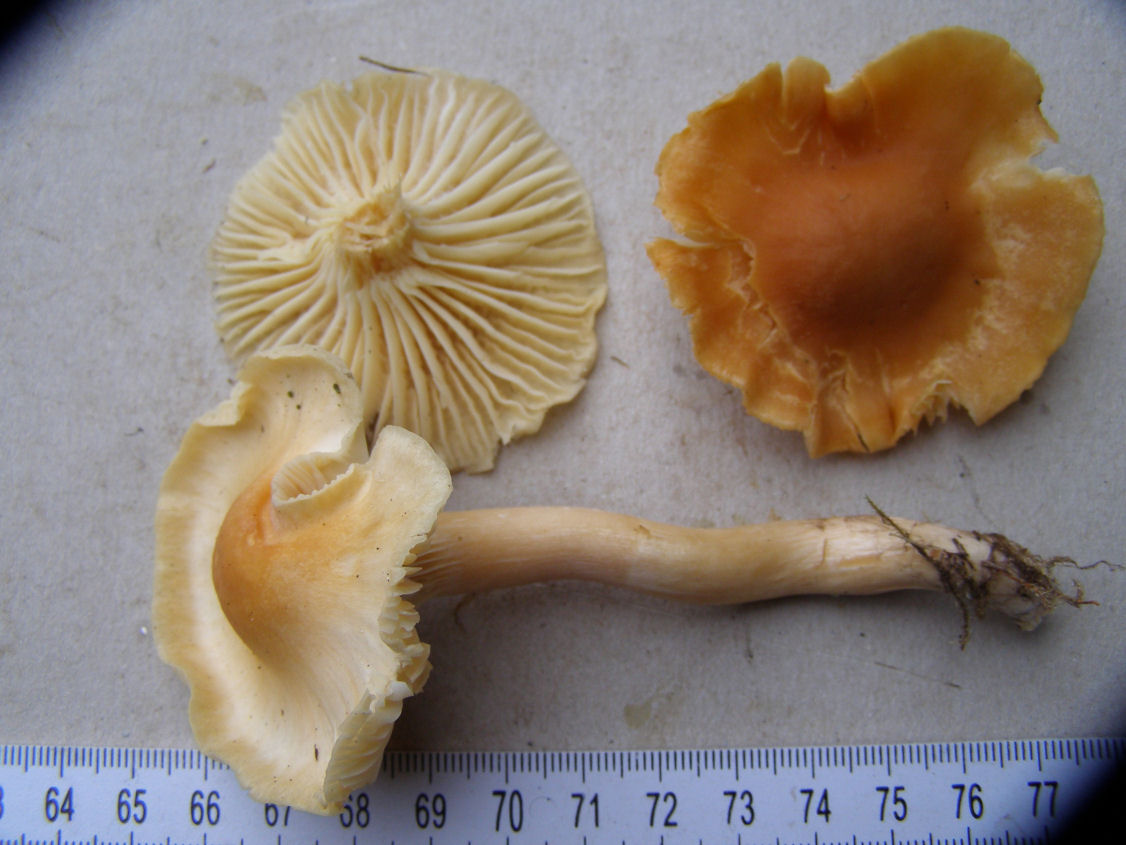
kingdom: Fungi
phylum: Basidiomycota
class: Agaricomycetes
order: Agaricales
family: Hygrophoraceae
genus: Cuphophyllus
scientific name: Cuphophyllus pratensis
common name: eng-vokshat
